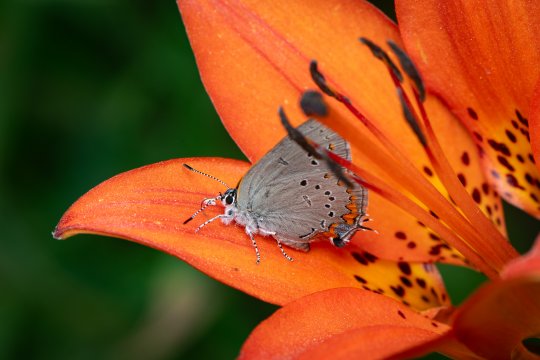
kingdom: Animalia
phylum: Arthropoda
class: Insecta
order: Lepidoptera
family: Lycaenidae
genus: Strymon
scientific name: Strymon acadica
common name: Acadian Hairstreak
